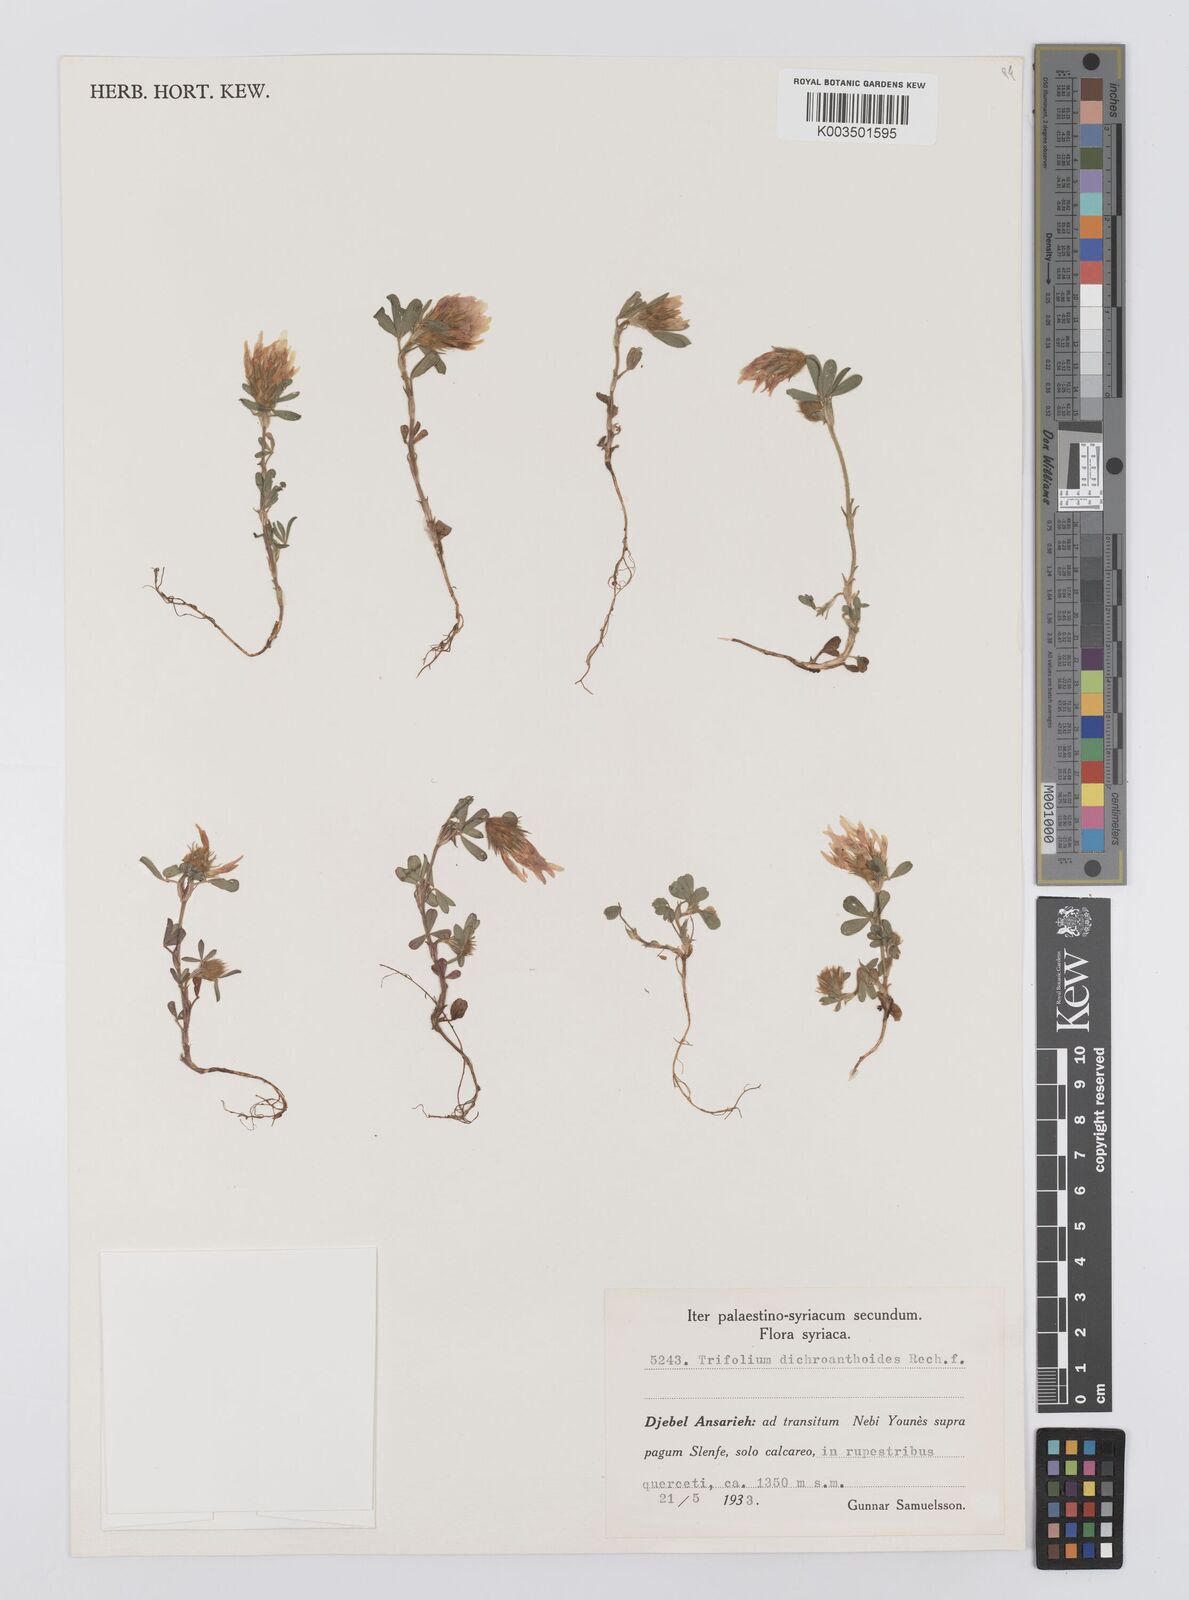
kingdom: Plantae
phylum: Tracheophyta
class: Magnoliopsida
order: Fabales
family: Fabaceae
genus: Trifolium
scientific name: Trifolium dichroanthoides
